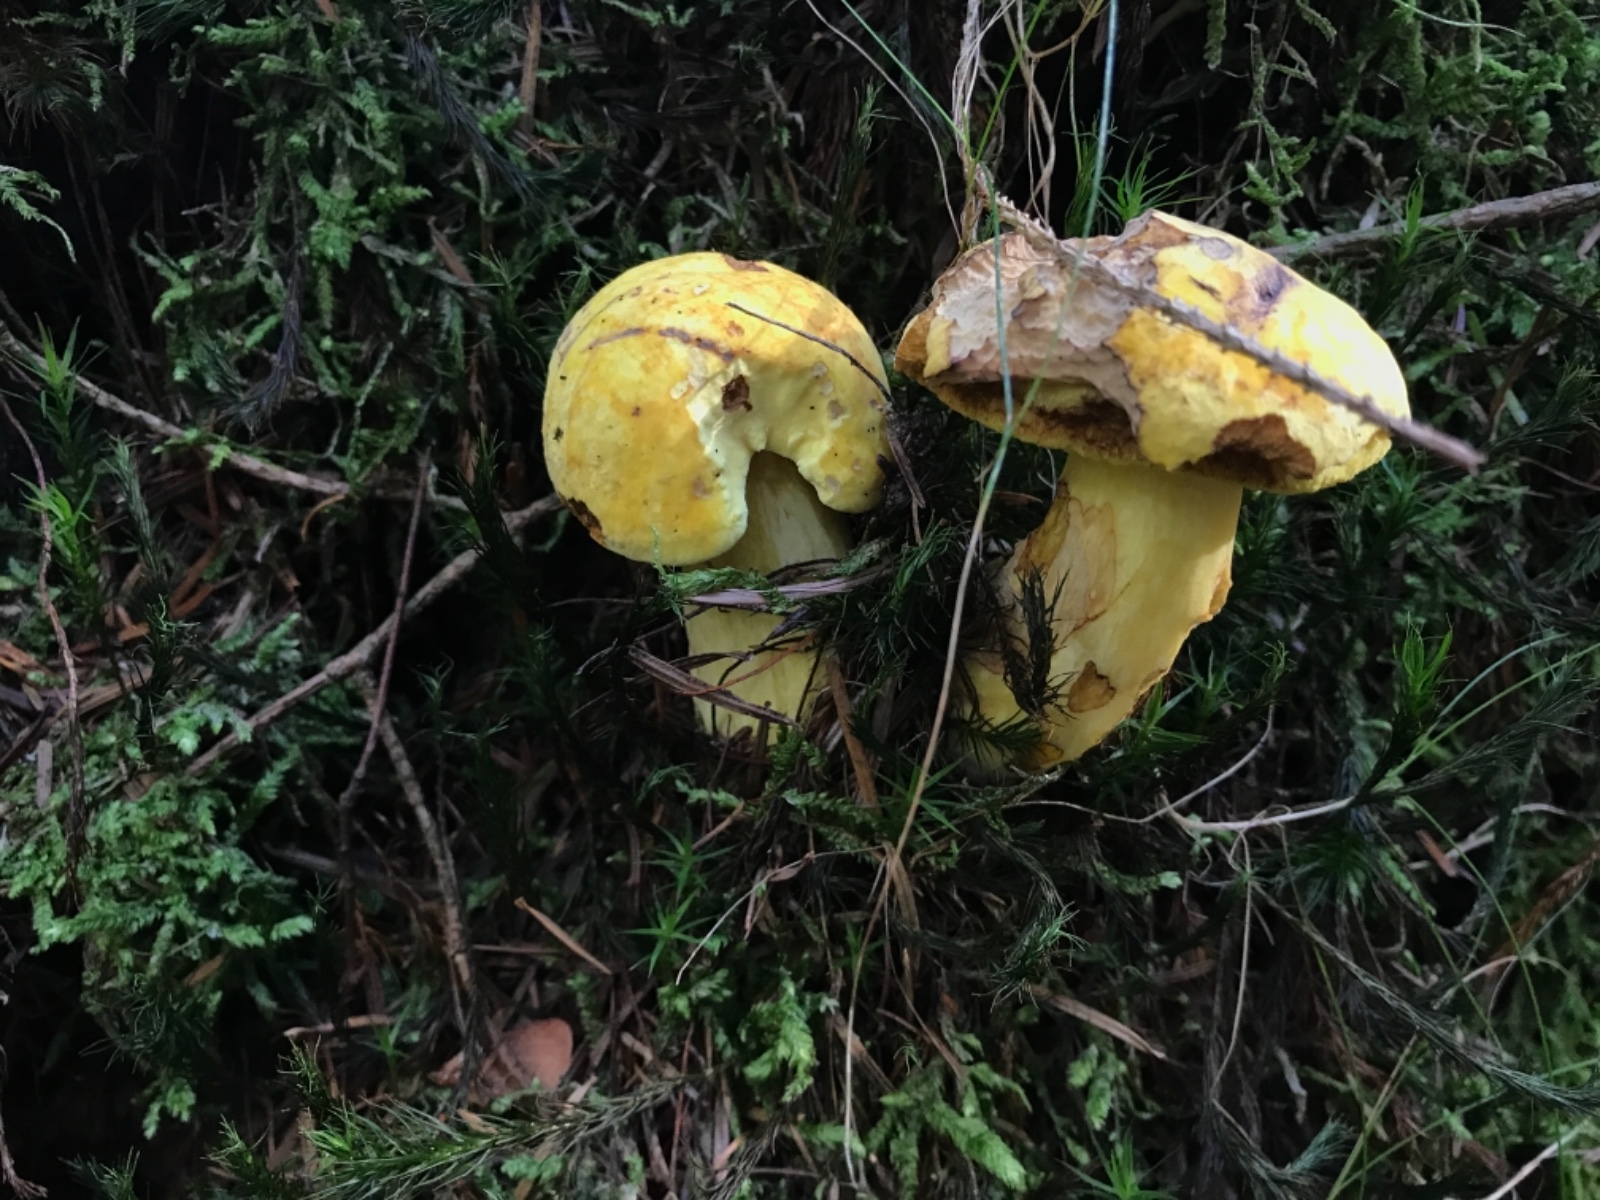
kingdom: Fungi
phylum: Basidiomycota
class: Agaricomycetes
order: Boletales
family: Boletaceae
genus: Neoboletus
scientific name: Neoboletus praestigiator
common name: gul indigorørhat
